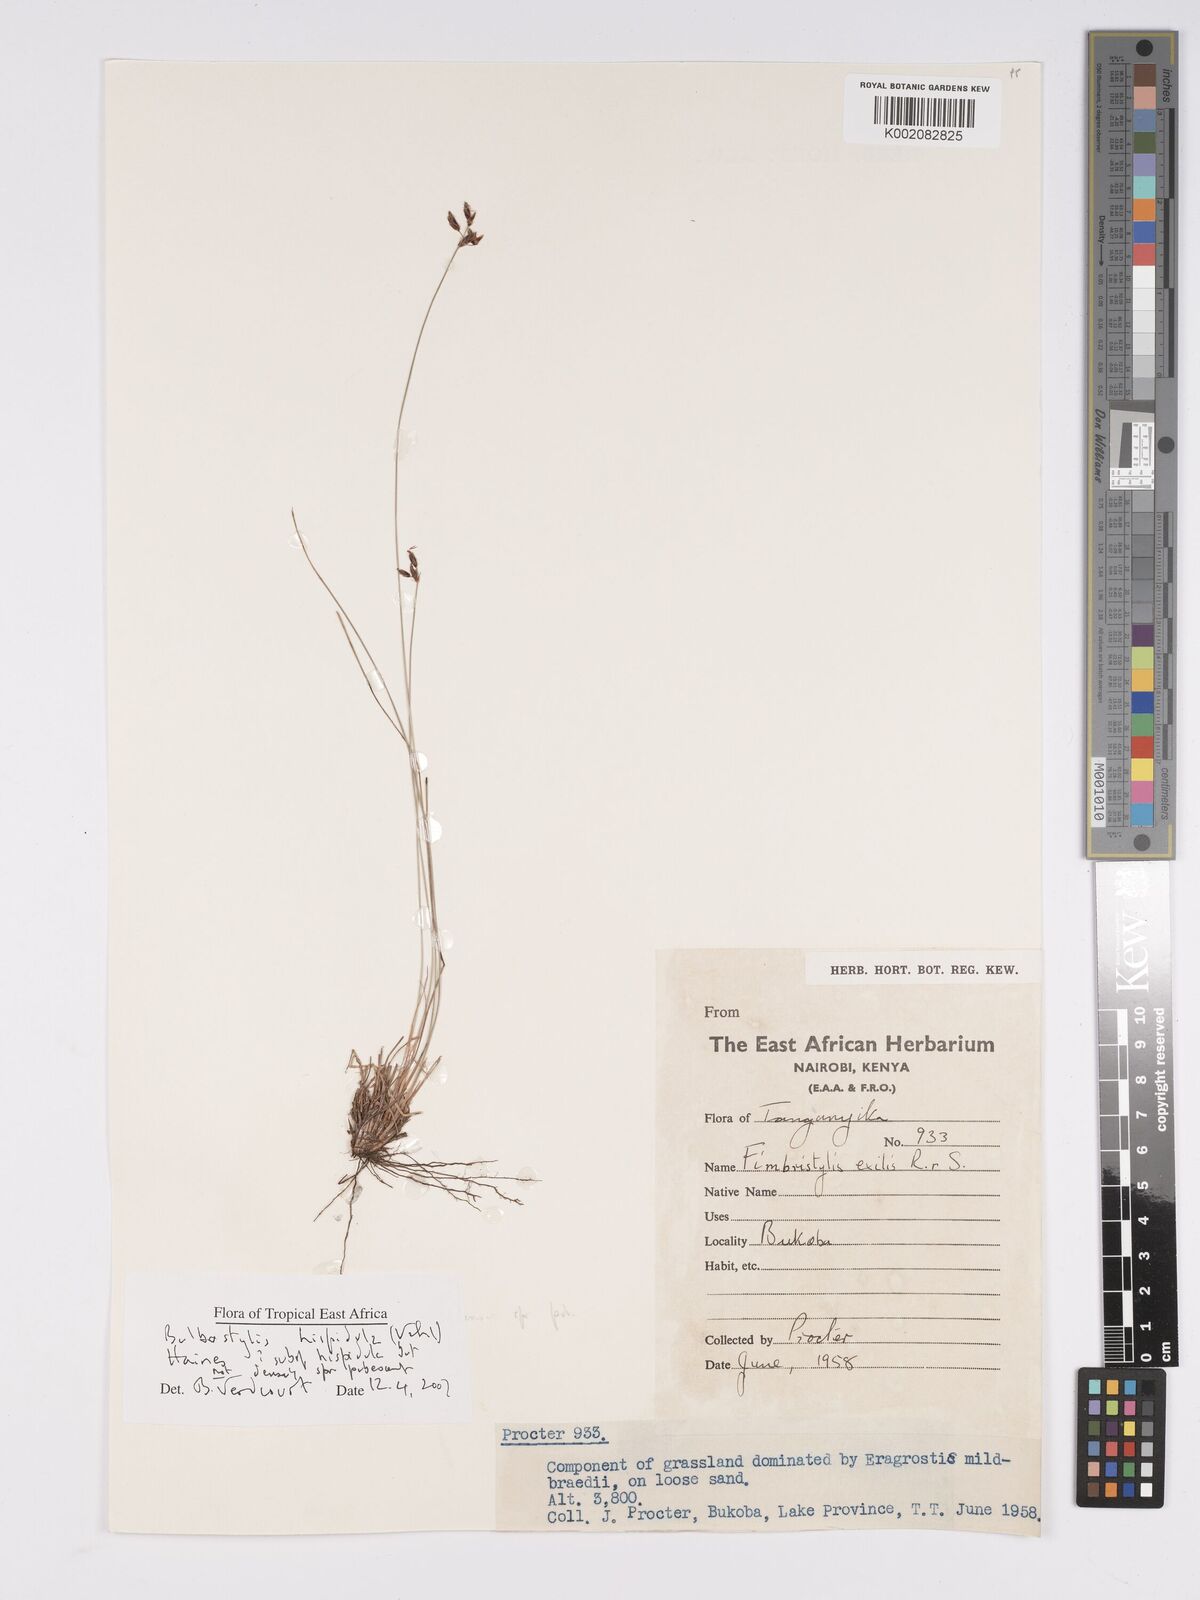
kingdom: Plantae
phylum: Tracheophyta
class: Liliopsida
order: Poales
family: Cyperaceae
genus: Bulbostylis
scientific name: Bulbostylis hispidula
